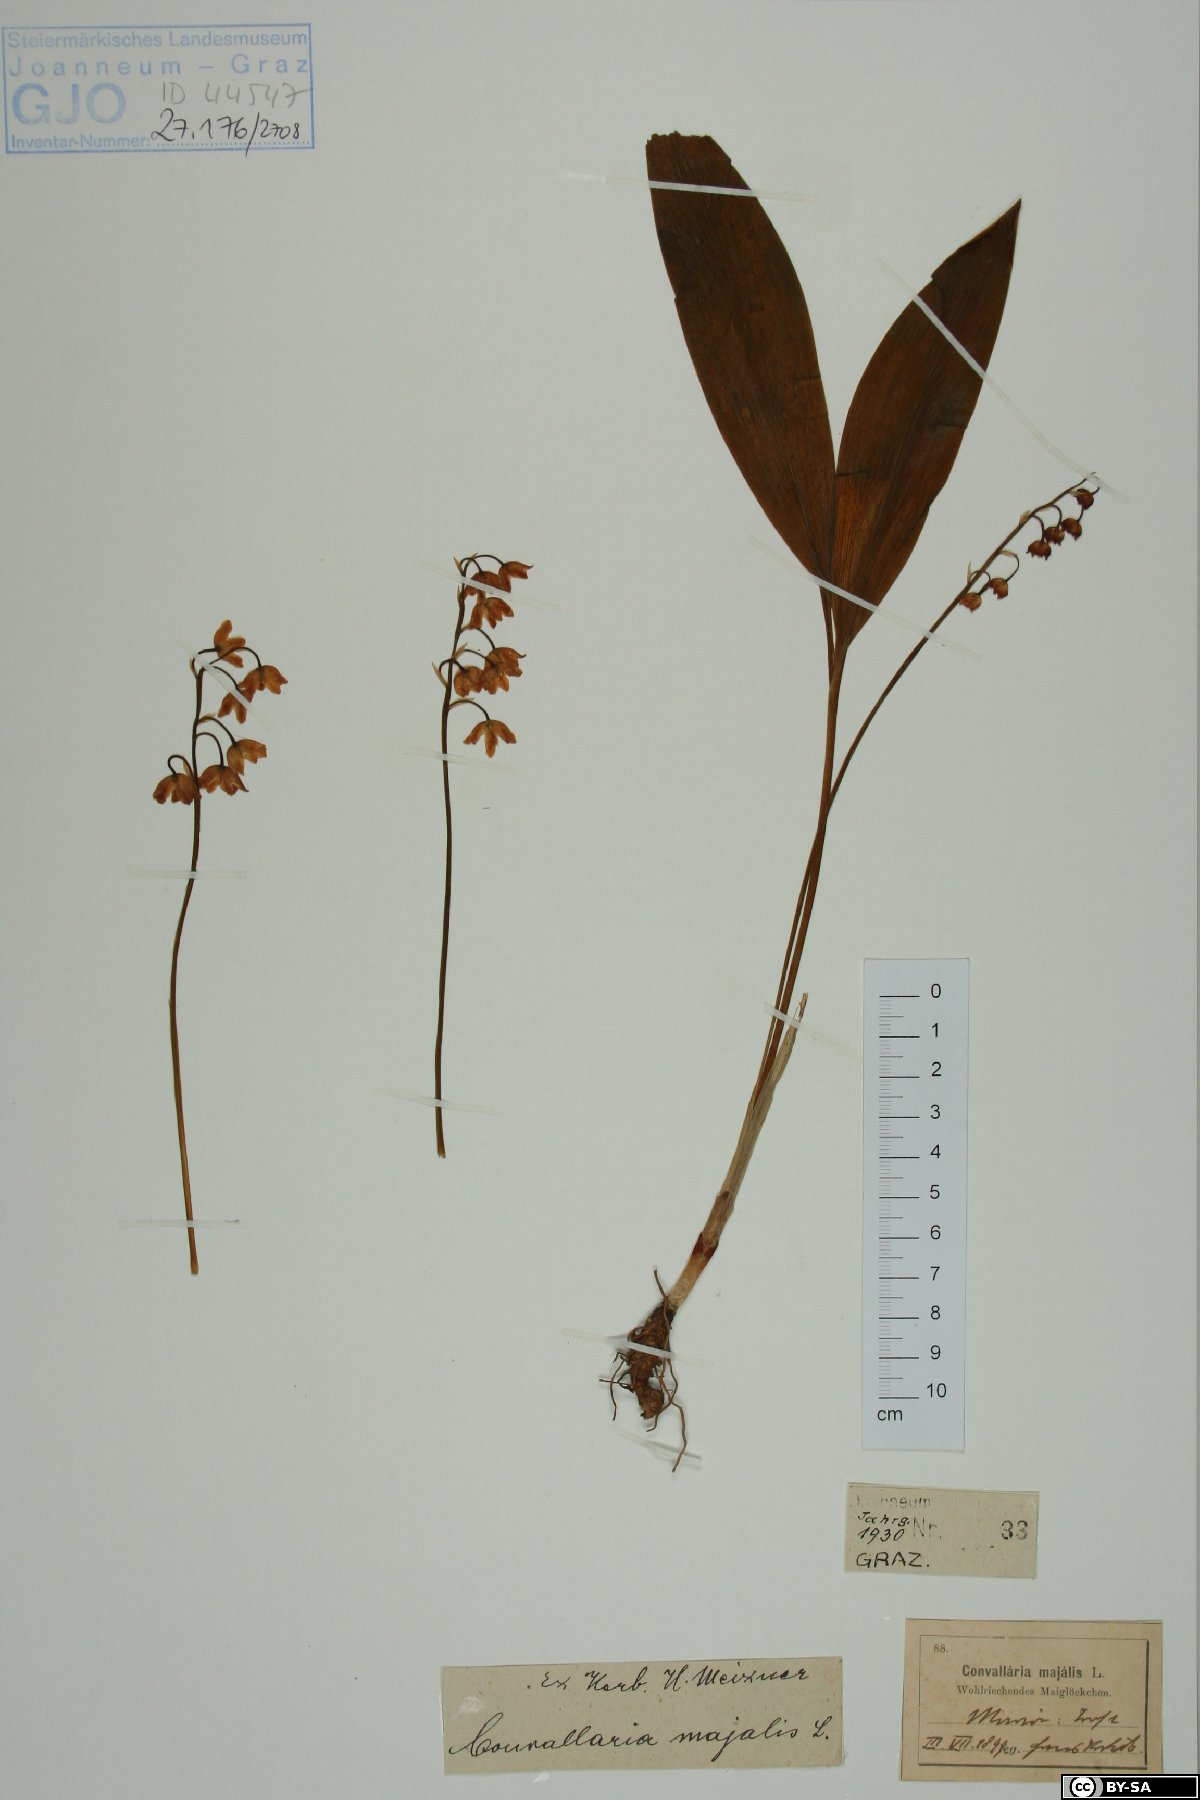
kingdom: Plantae
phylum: Tracheophyta
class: Liliopsida
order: Asparagales
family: Asparagaceae
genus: Convallaria
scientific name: Convallaria majalis
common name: Lily-of-the-valley
